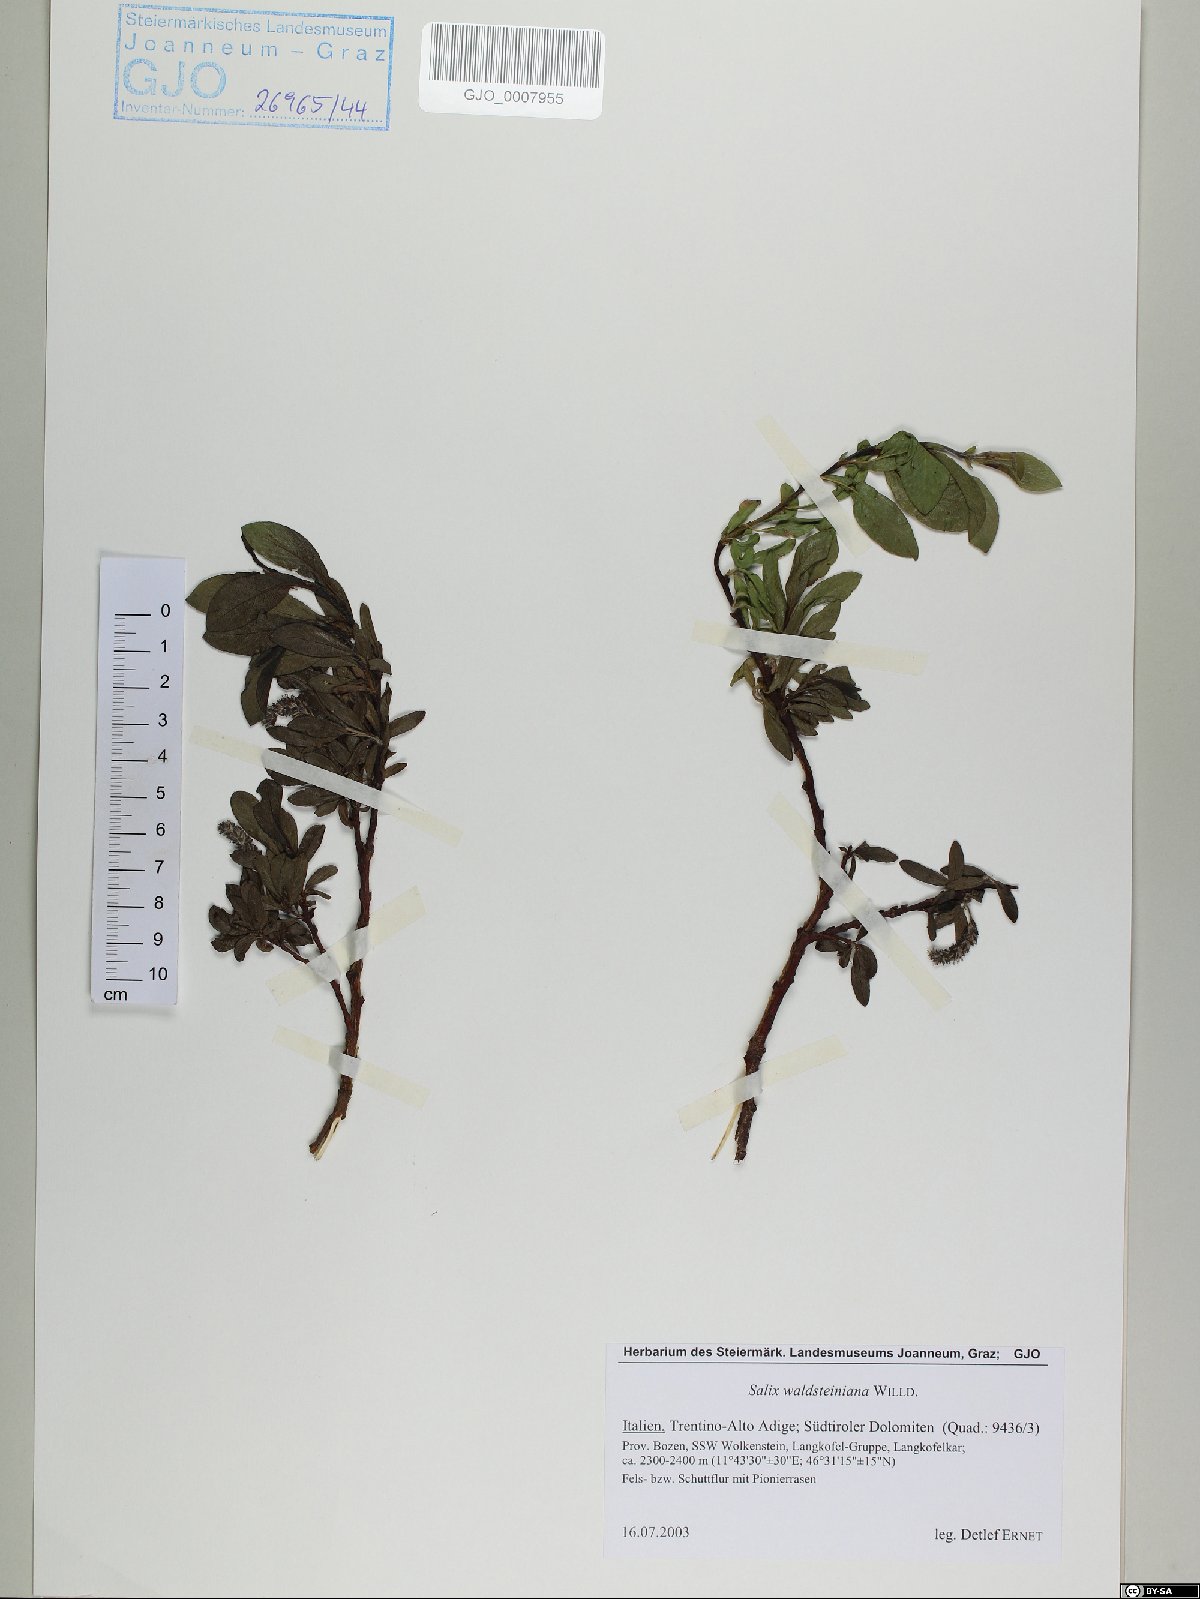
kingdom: Plantae
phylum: Tracheophyta
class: Magnoliopsida
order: Malpighiales
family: Salicaceae
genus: Salix
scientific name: Salix waldsteiniana
